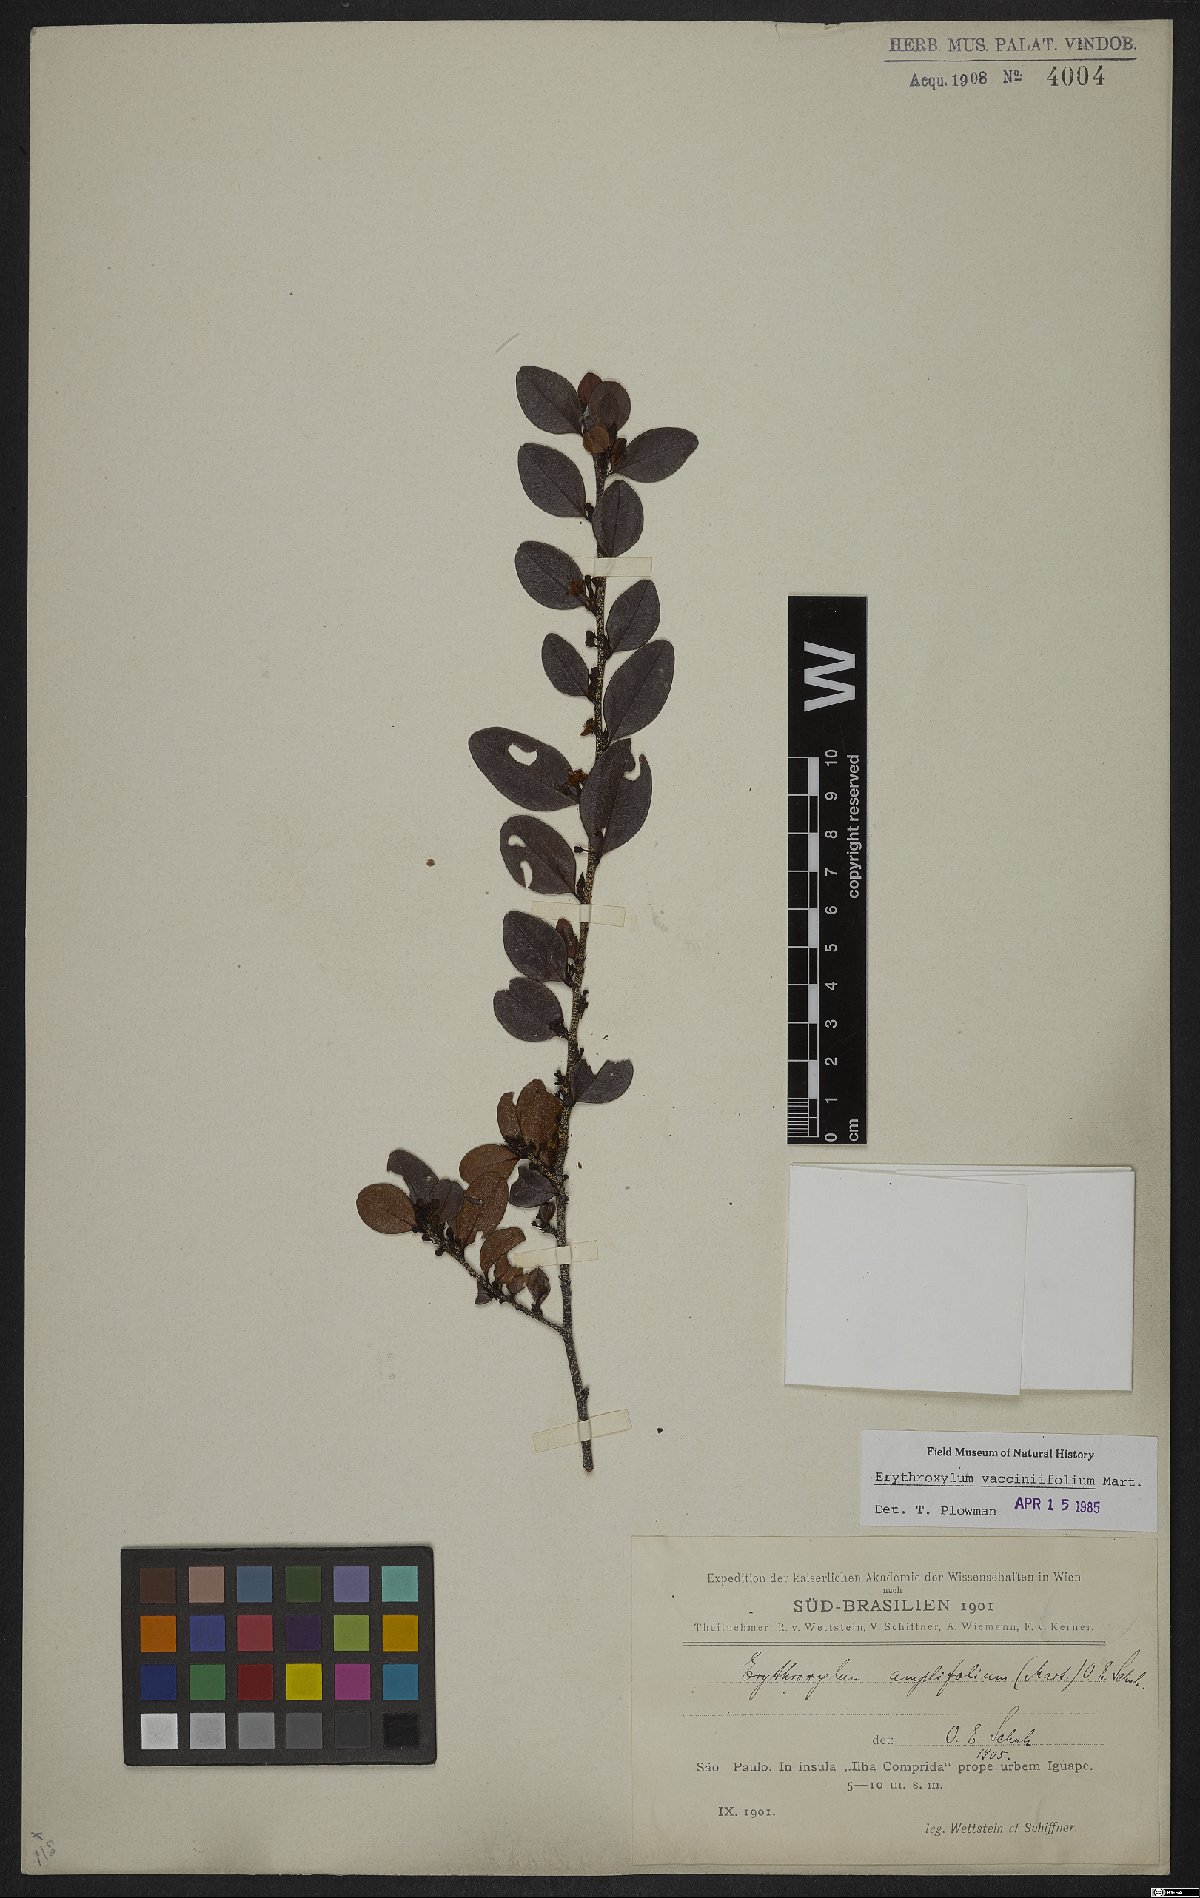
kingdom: Plantae
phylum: Tracheophyta
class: Magnoliopsida
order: Malpighiales
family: Erythroxylaceae
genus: Erythroxylum
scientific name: Erythroxylum vaccinifolium
